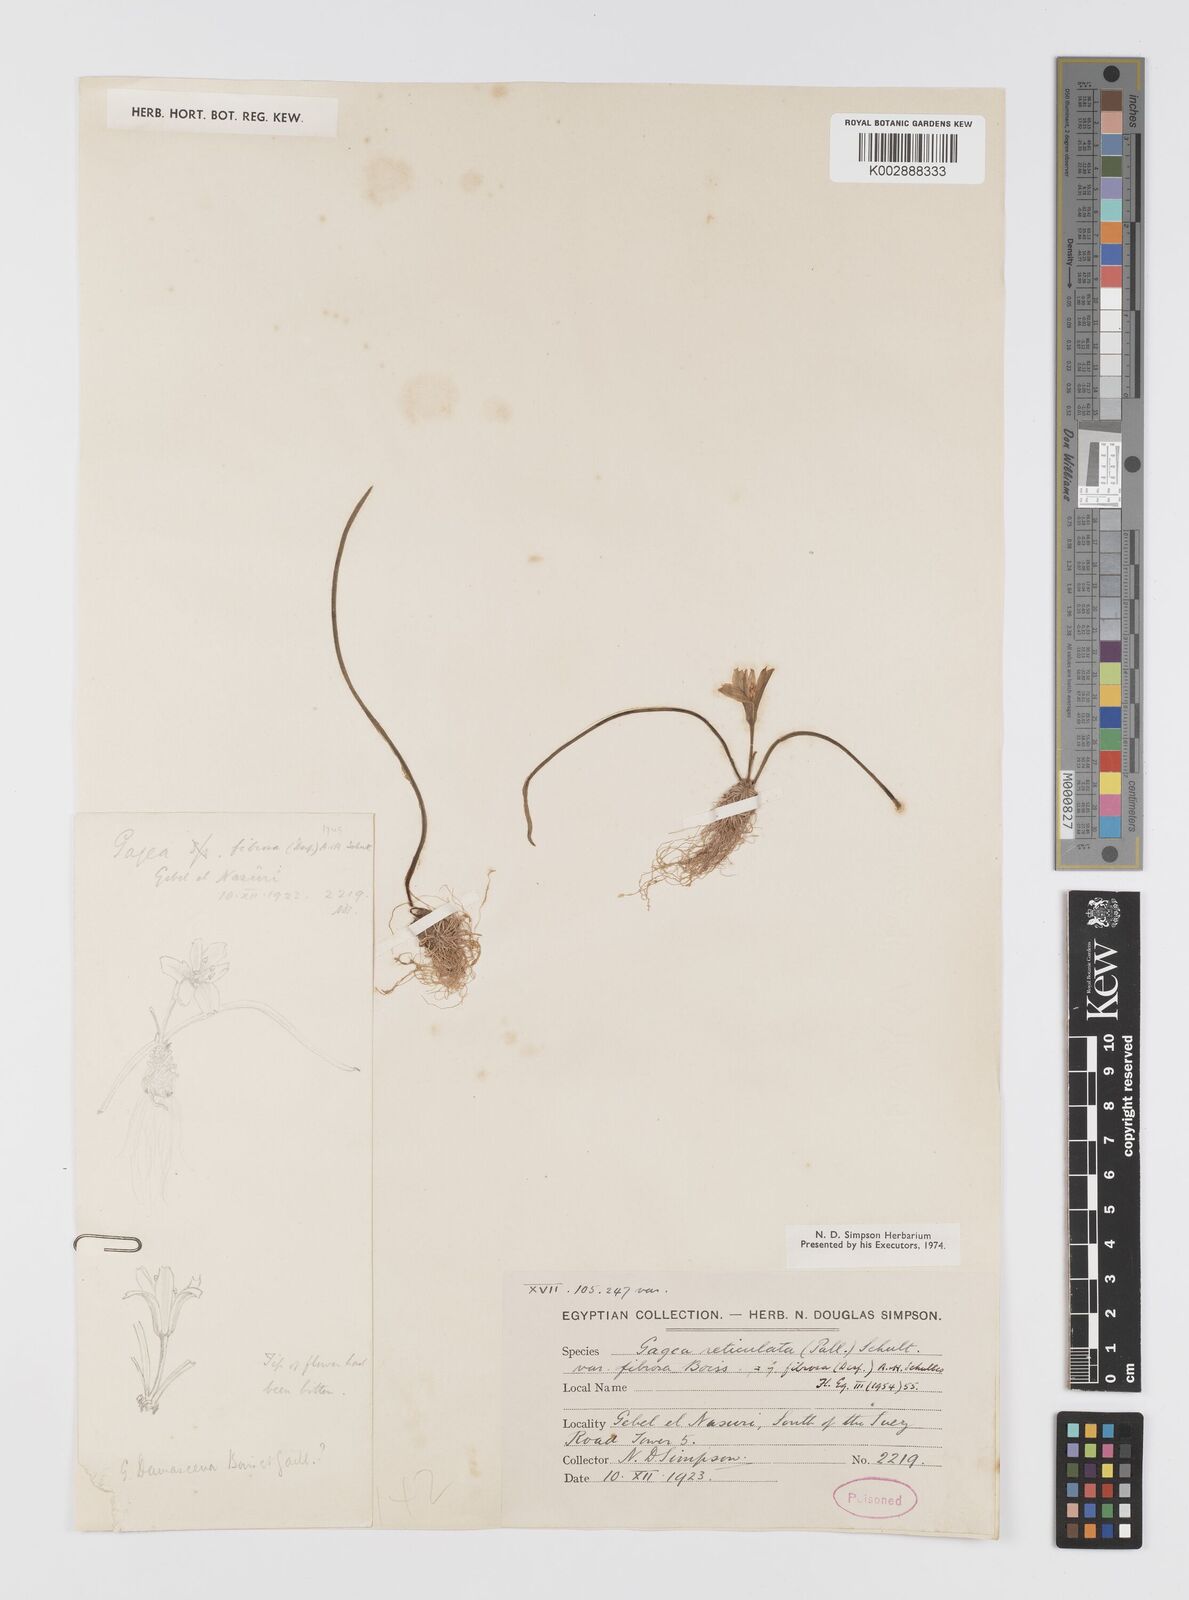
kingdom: Plantae
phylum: Tracheophyta
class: Liliopsida
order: Liliales
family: Liliaceae
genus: Gagea
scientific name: Gagea fibrosa
